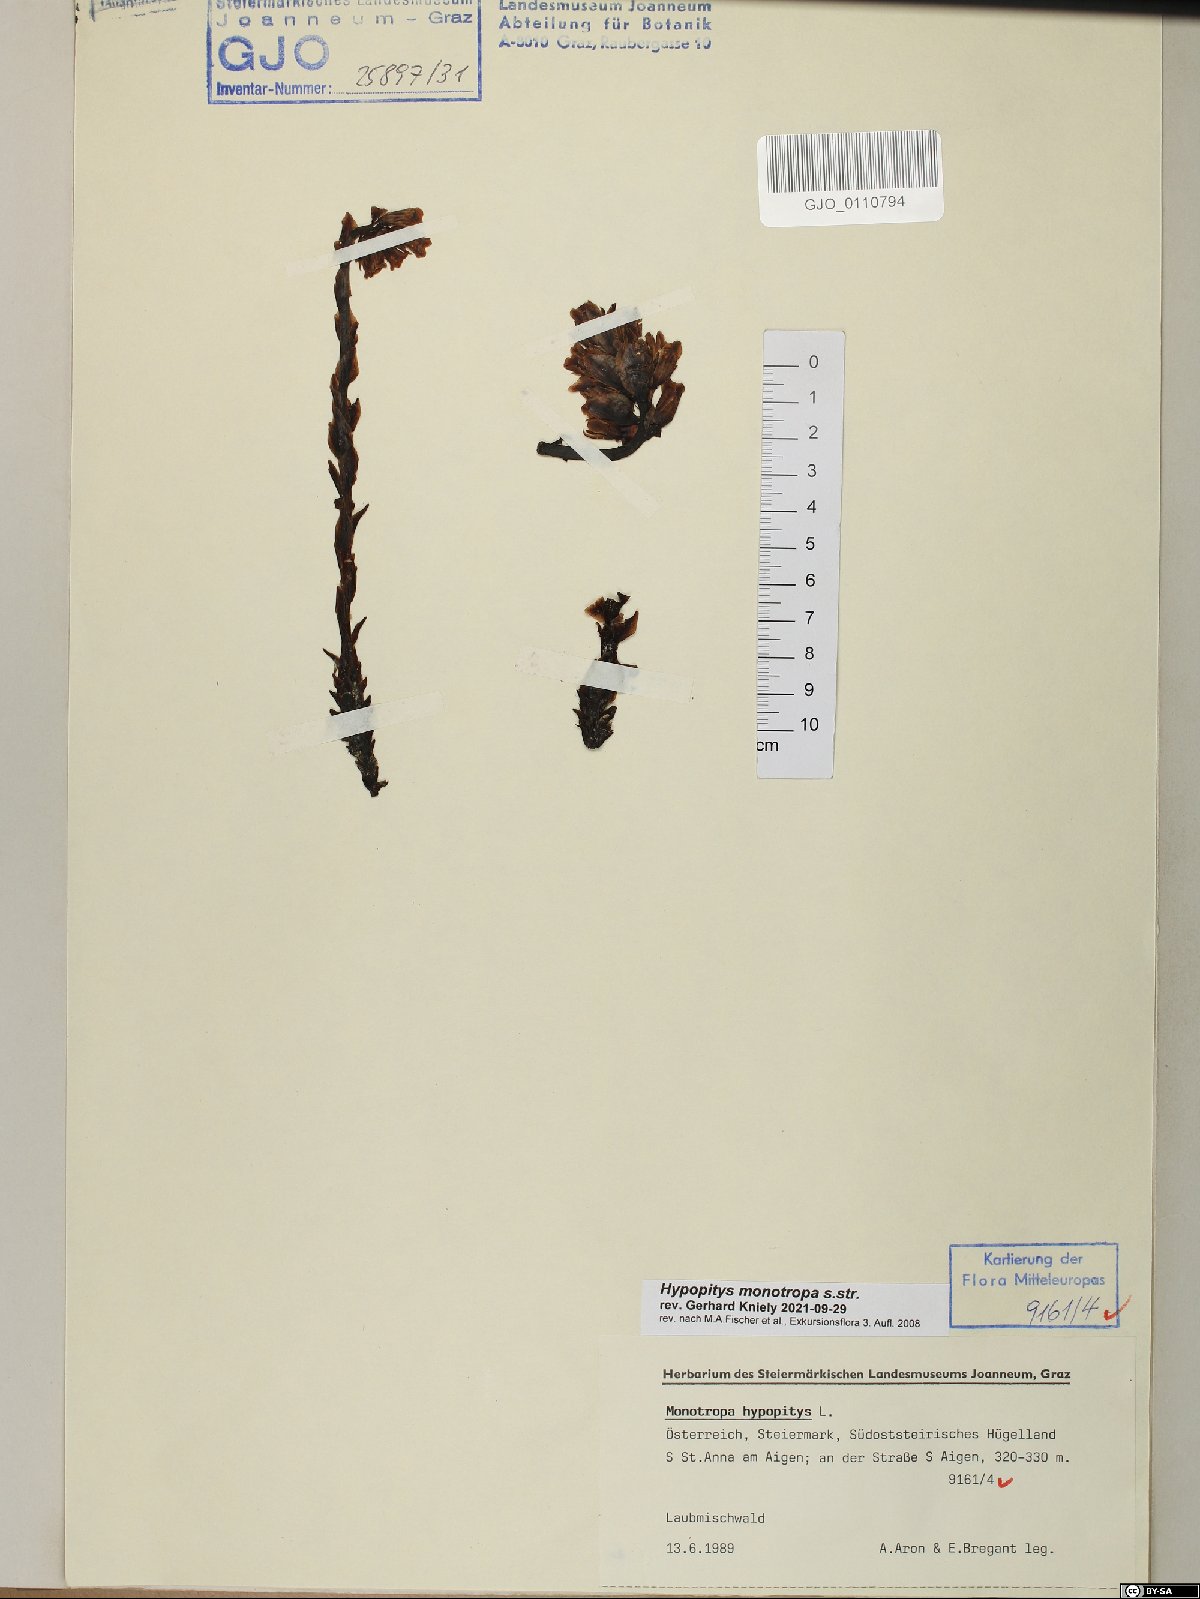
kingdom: Plantae
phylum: Tracheophyta
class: Magnoliopsida
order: Ericales
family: Ericaceae
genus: Hypopitys
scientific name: Hypopitys monotropa
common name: Yellow bird's-nest
